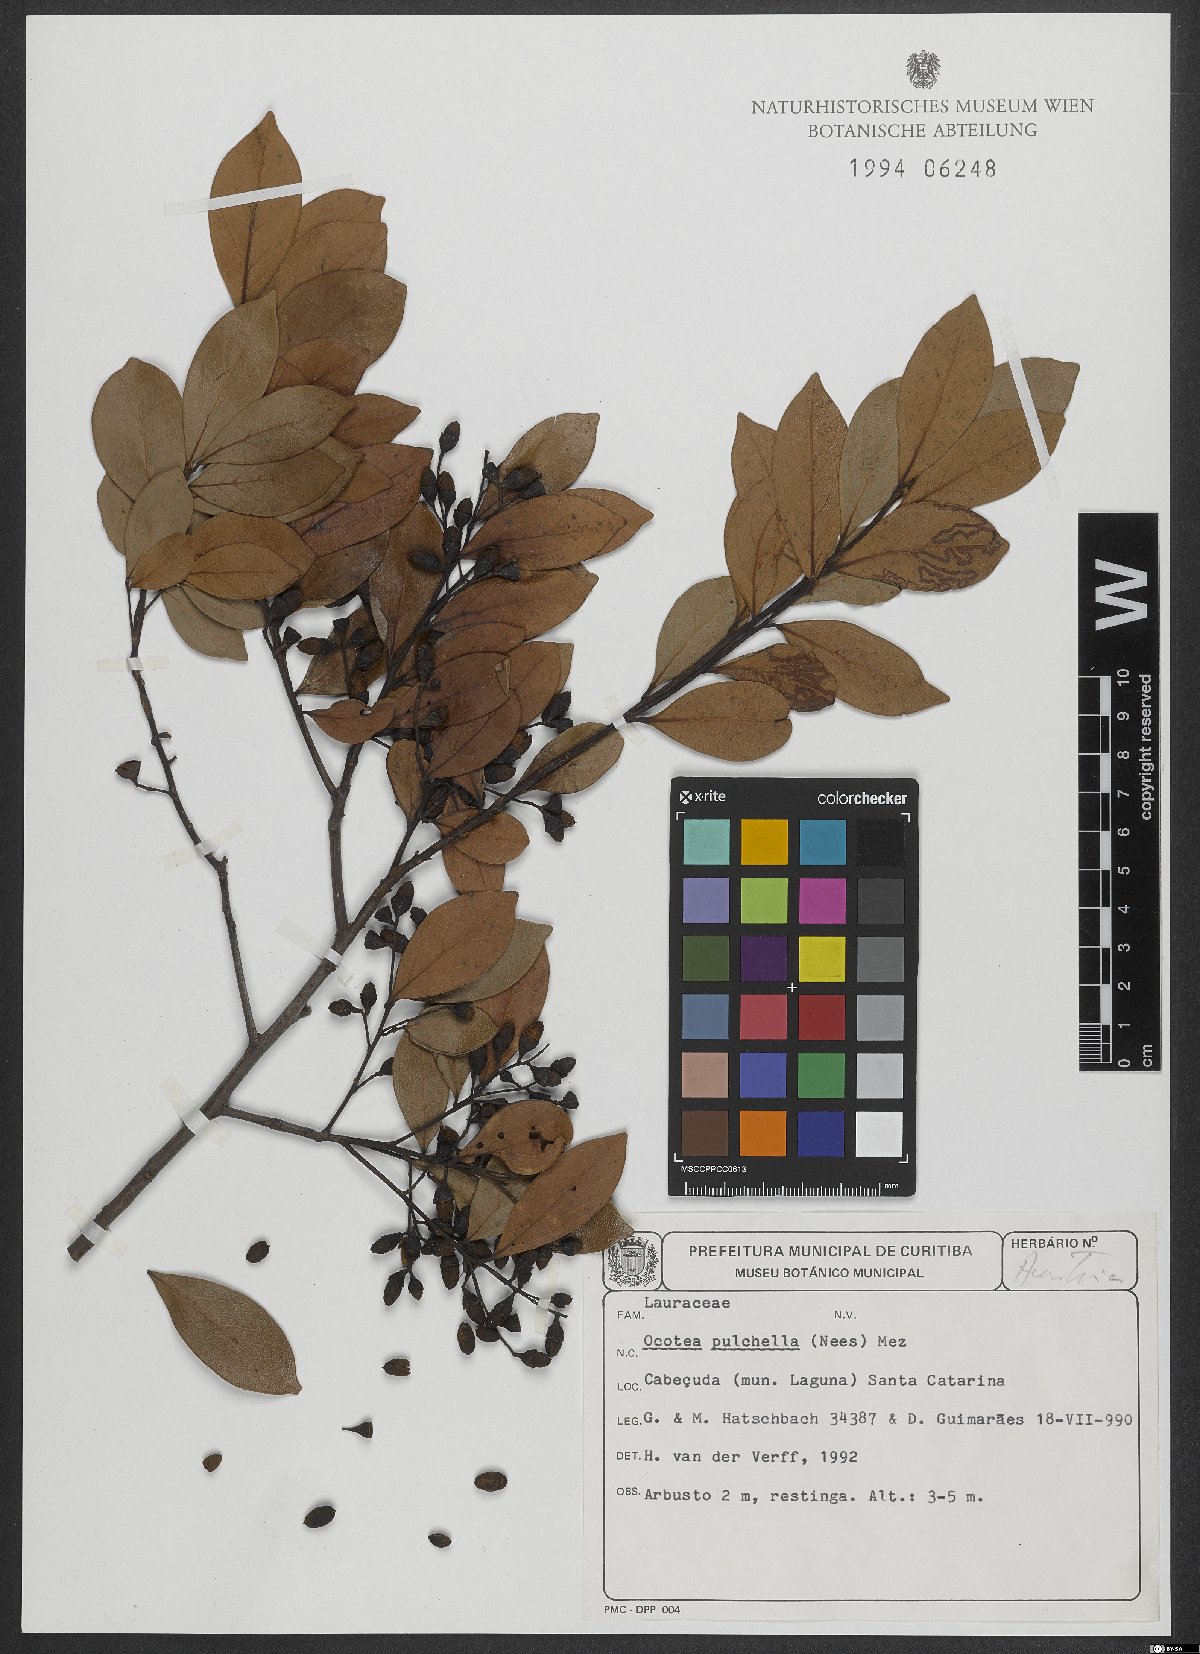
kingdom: Plantae
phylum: Tracheophyta
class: Magnoliopsida
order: Laurales
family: Lauraceae
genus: Mespilodaphne
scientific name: Mespilodaphne pulchella
